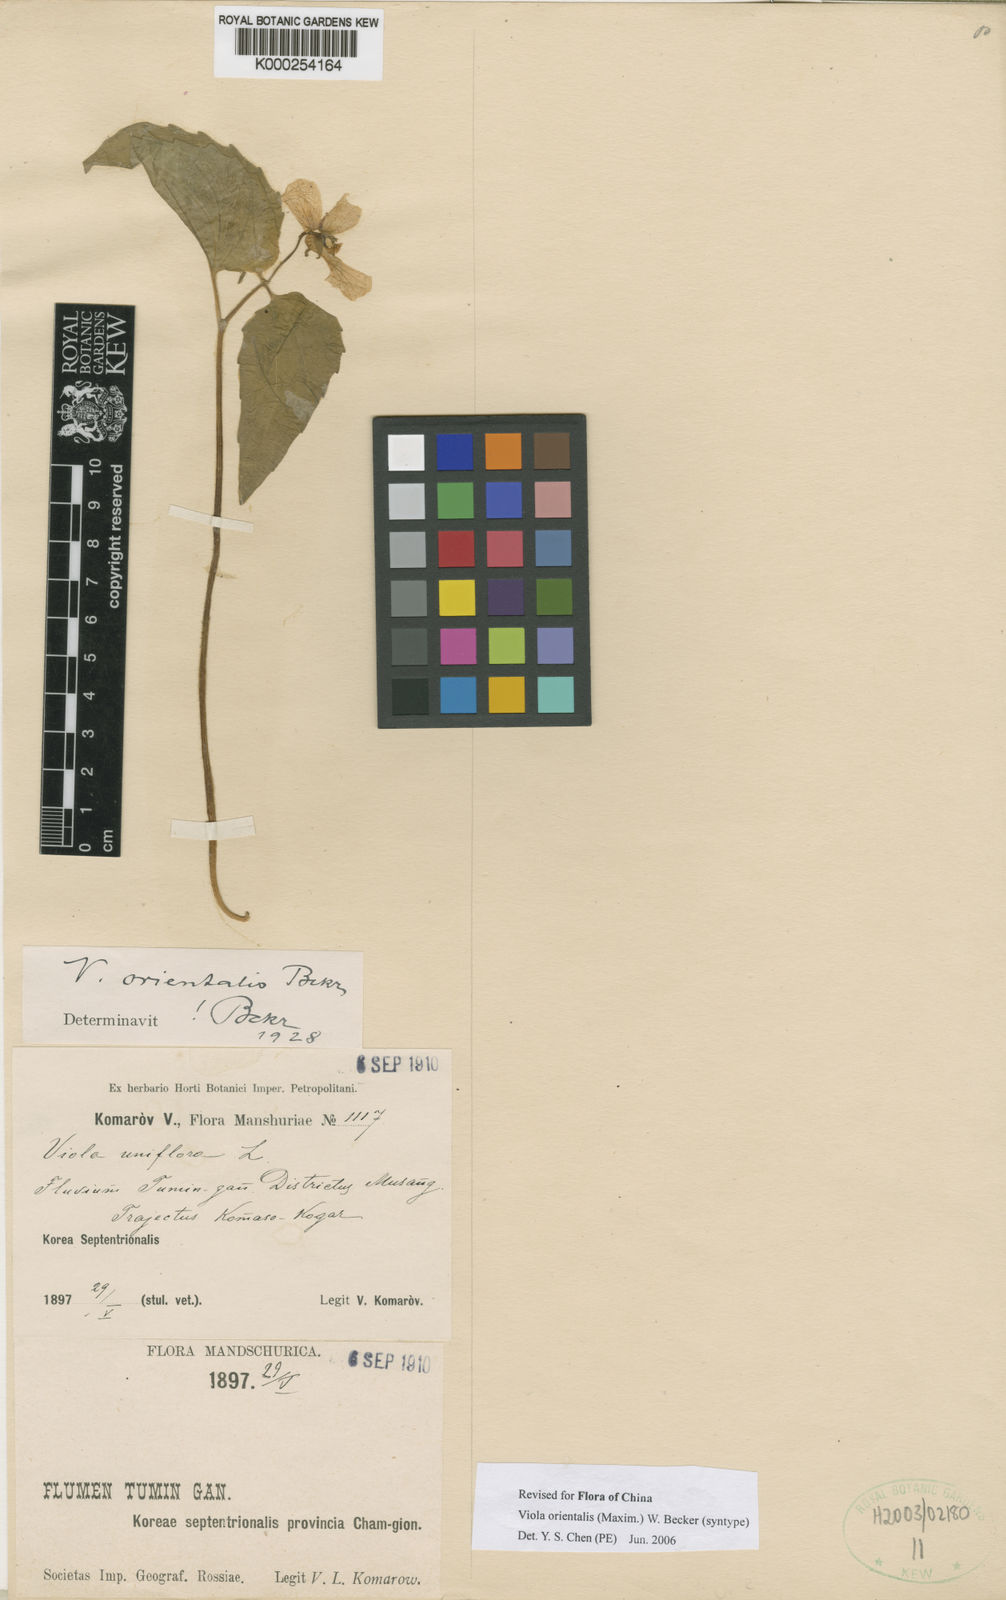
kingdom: Plantae
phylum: Tracheophyta
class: Magnoliopsida
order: Malpighiales
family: Violaceae
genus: Viola
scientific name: Viola orientalis
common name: Golden violet
